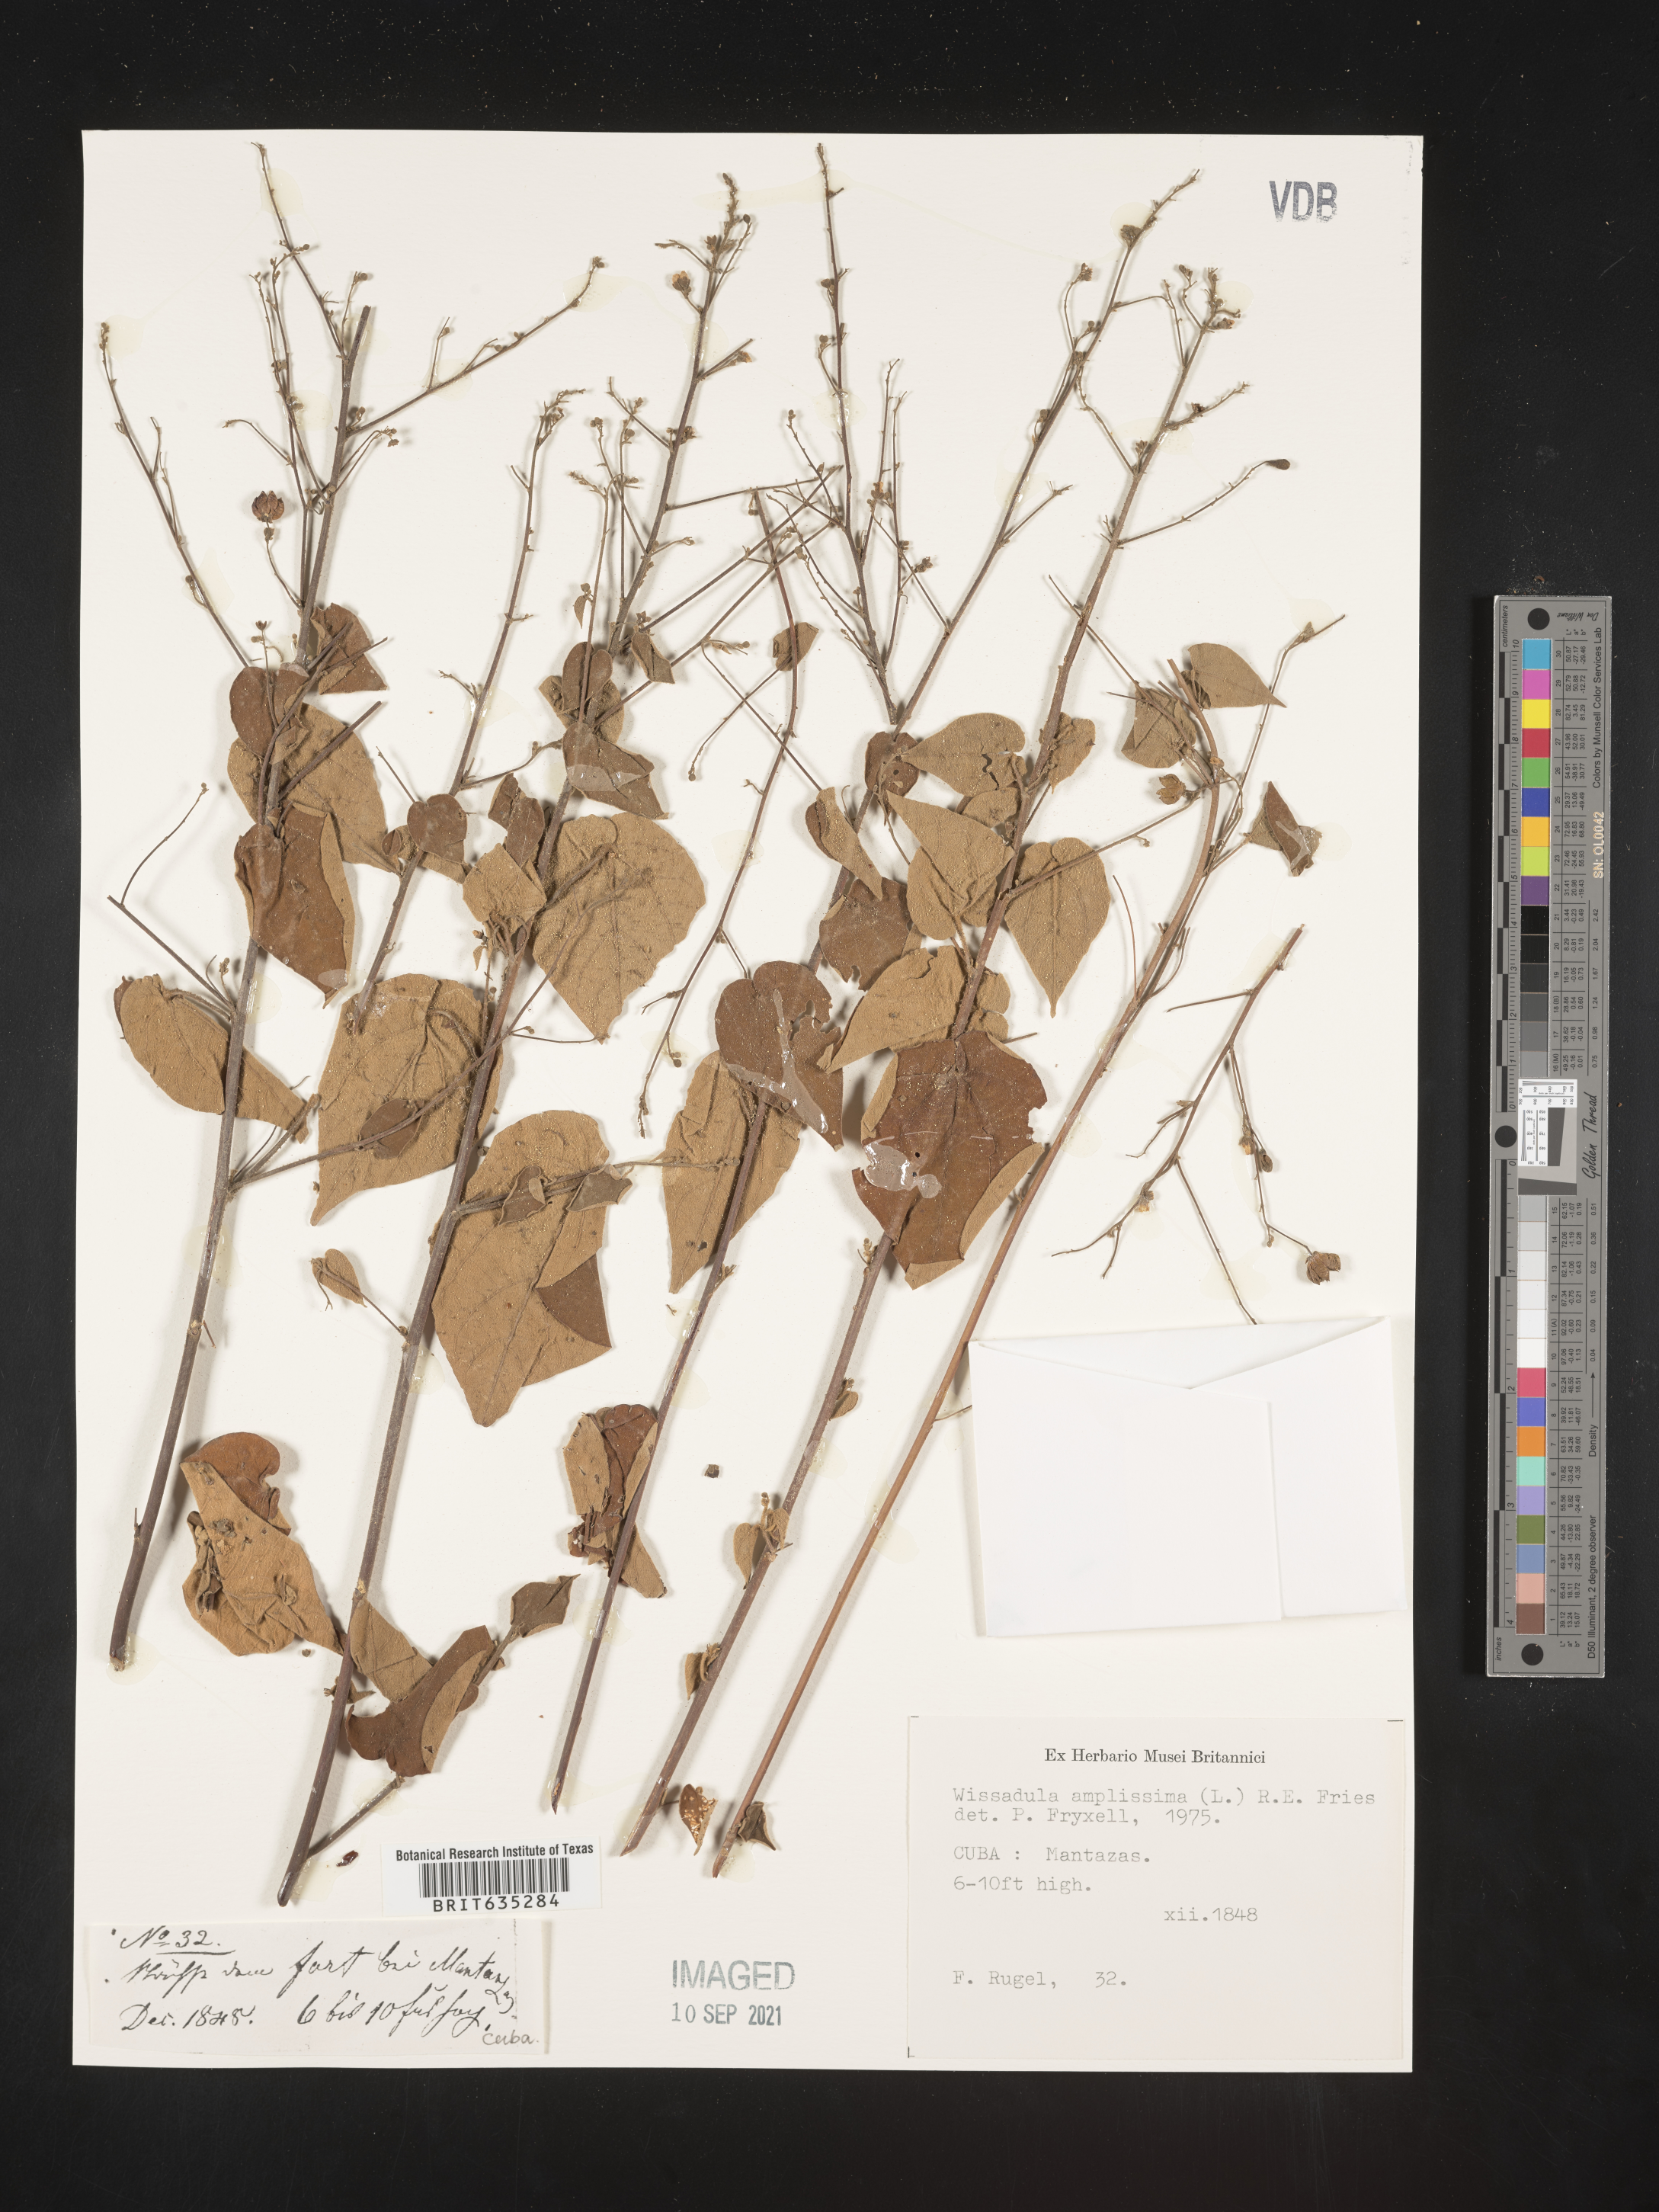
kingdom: Plantae
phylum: Tracheophyta
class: Magnoliopsida
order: Malvales
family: Malvaceae
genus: Wissadula
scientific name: Wissadula
